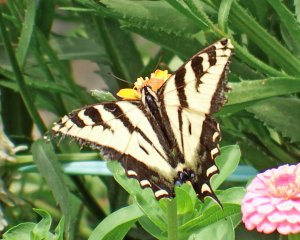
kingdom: Animalia
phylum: Arthropoda
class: Insecta
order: Lepidoptera
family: Papilionidae
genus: Pterourus
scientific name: Pterourus rutulus
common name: Western Tiger Swallowtail
